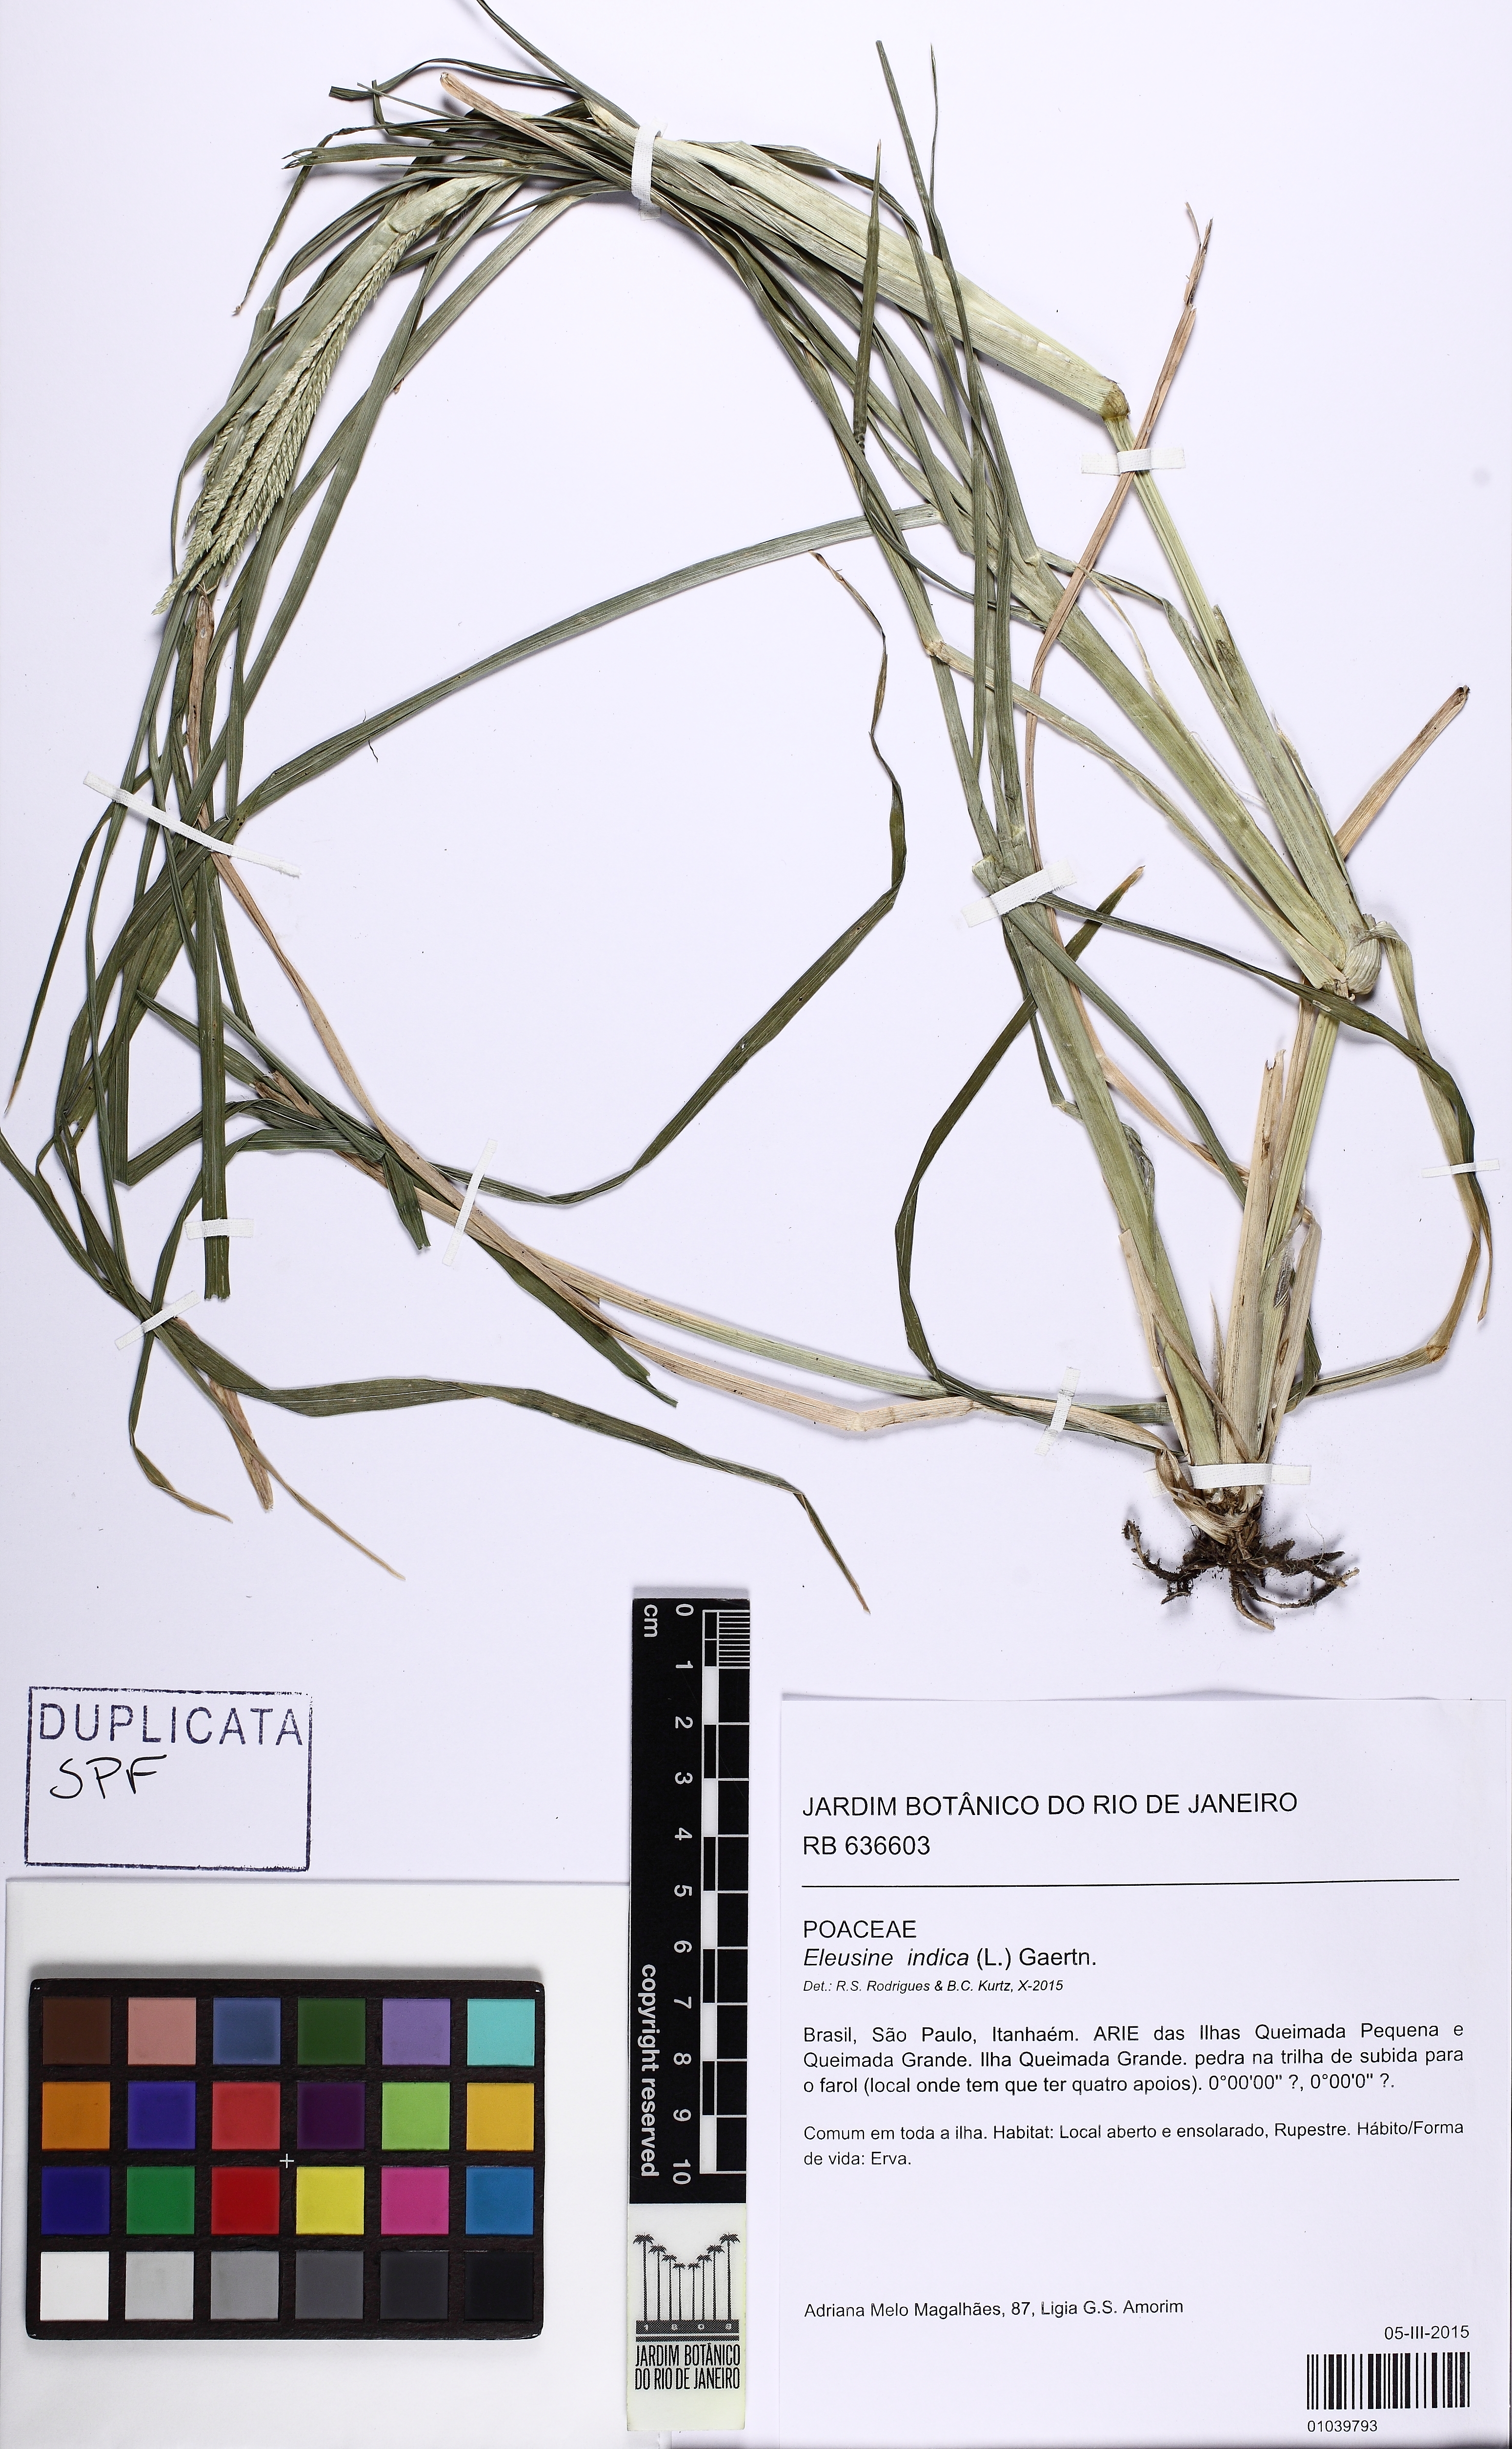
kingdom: Plantae
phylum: Tracheophyta
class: Liliopsida
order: Poales
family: Poaceae
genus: Eleusine
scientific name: Eleusine indica
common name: Yard-grass
